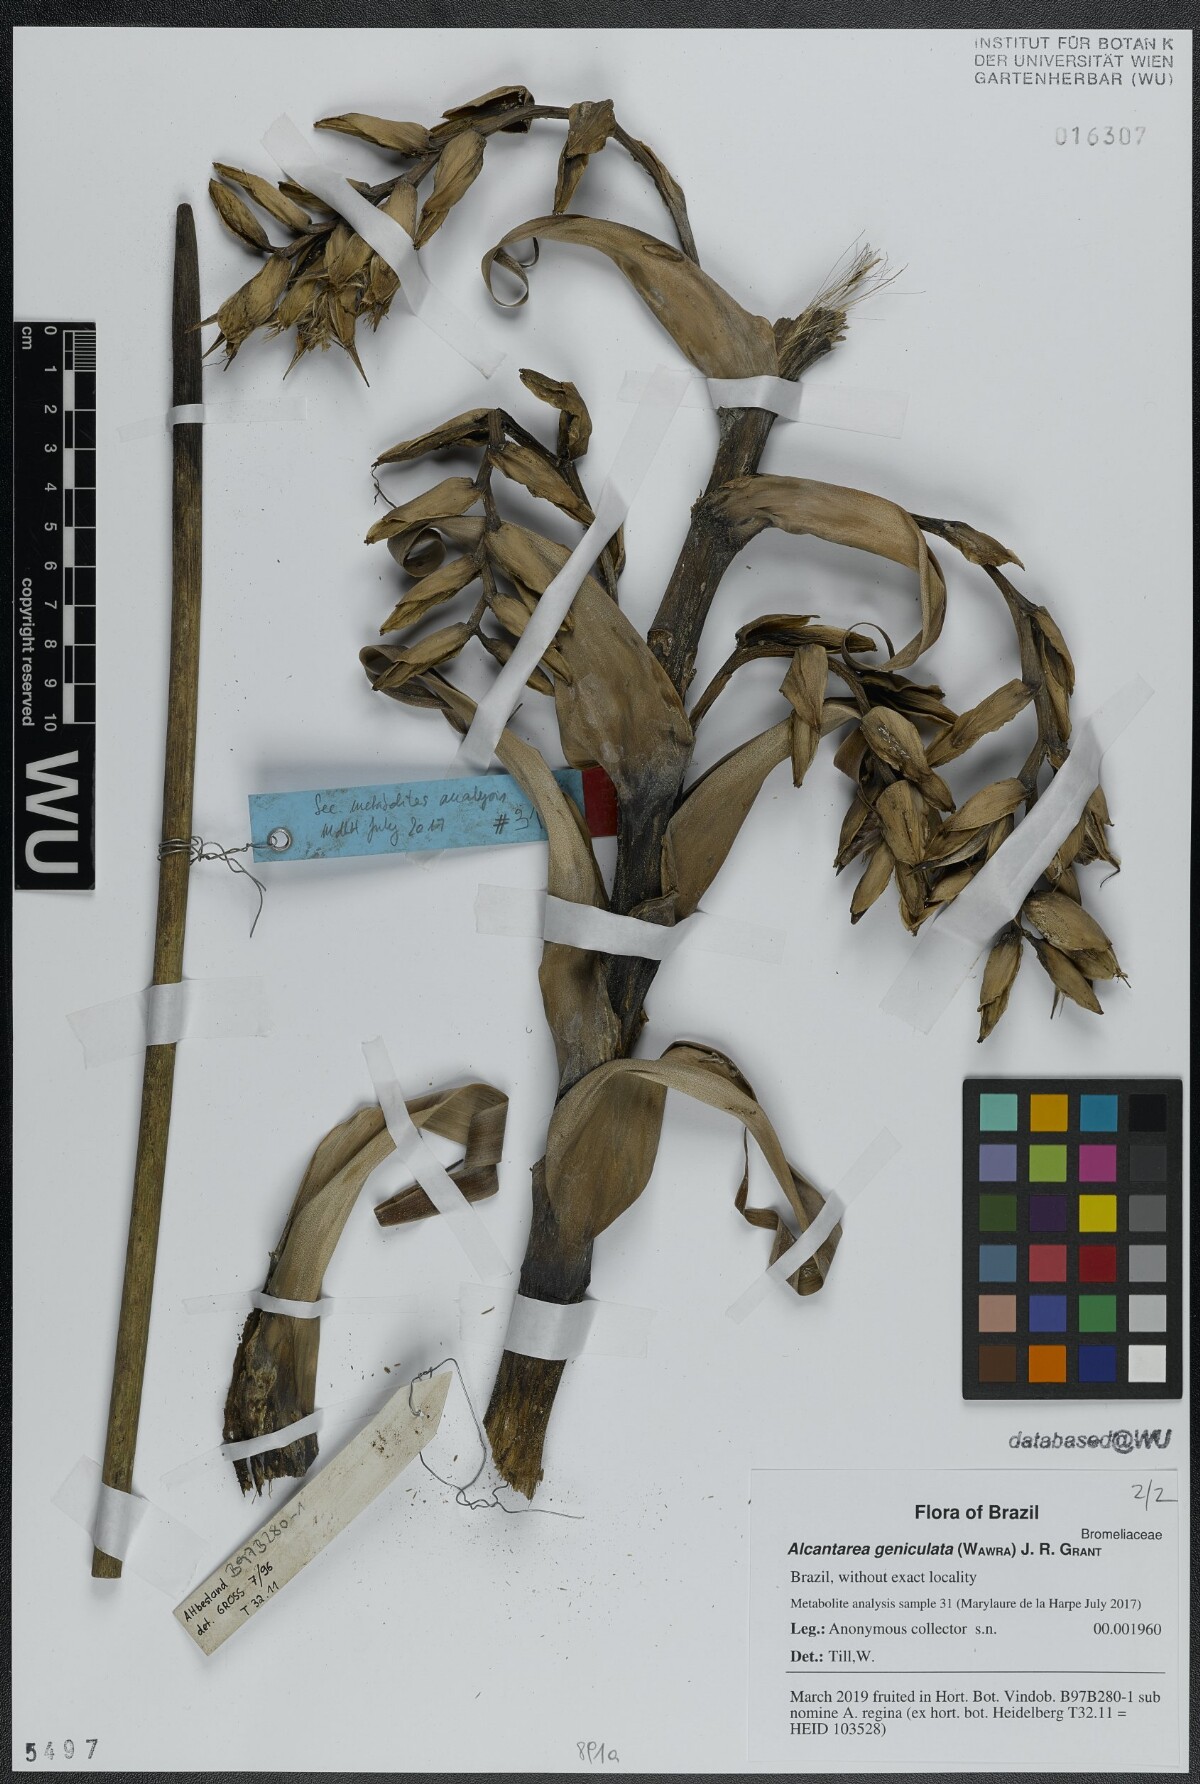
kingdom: Plantae
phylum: Tracheophyta
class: Liliopsida
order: Poales
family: Bromeliaceae
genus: Alcantarea
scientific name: Alcantarea geniculata
